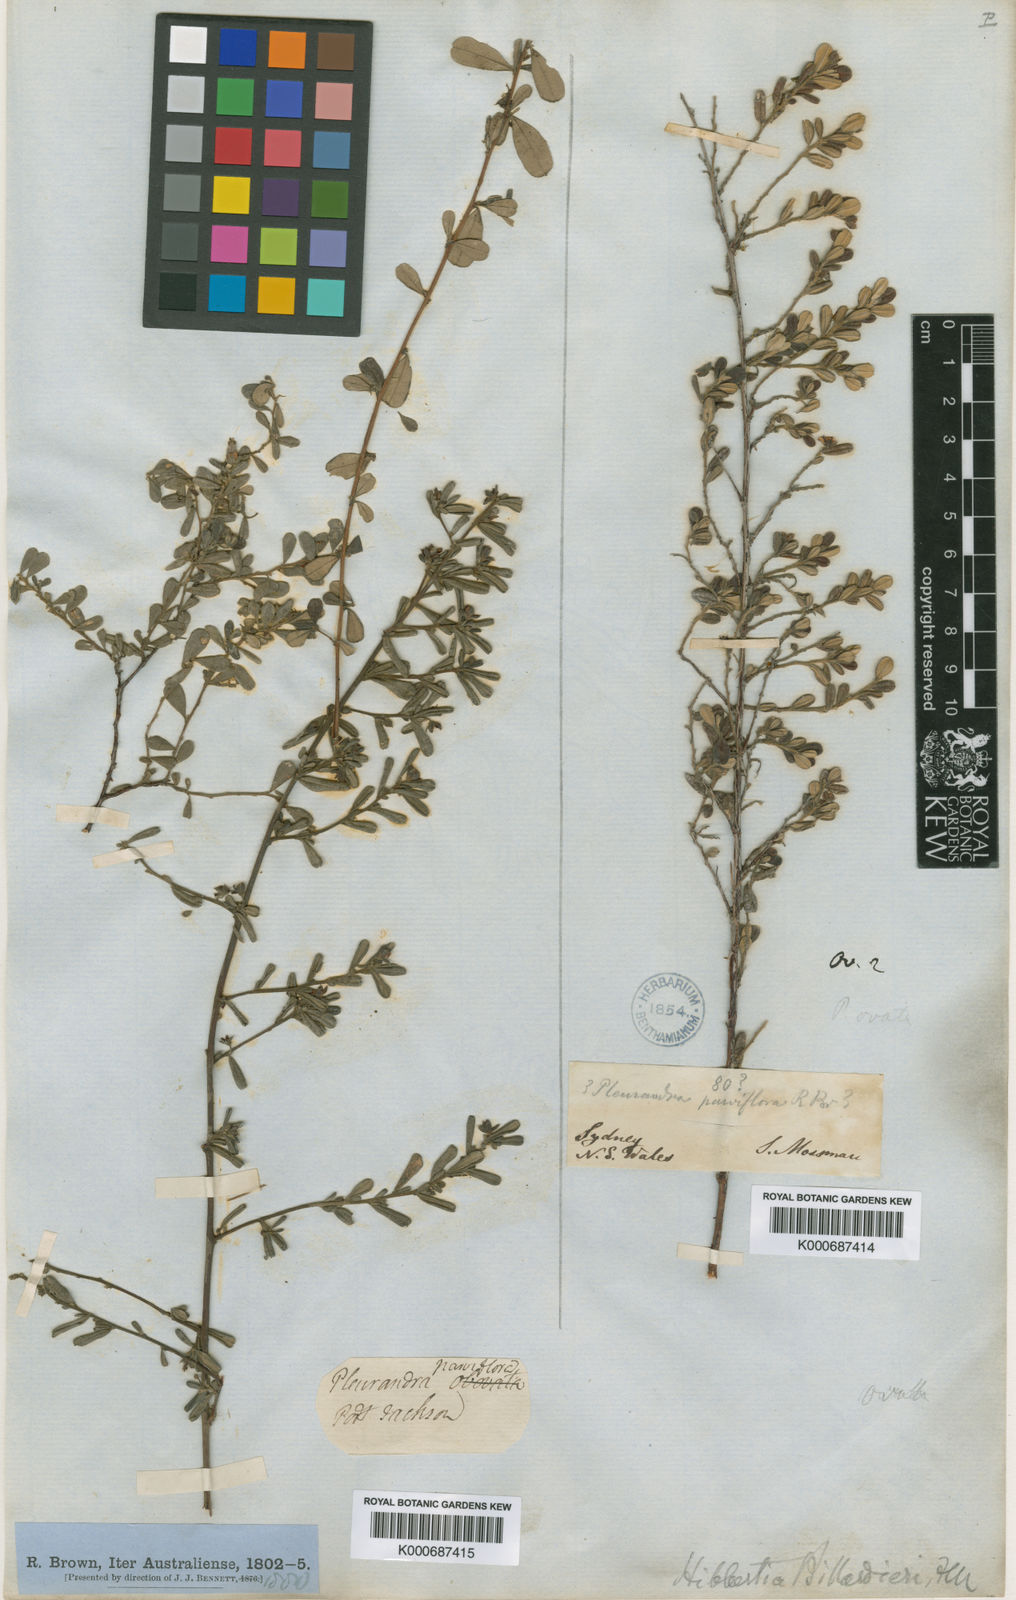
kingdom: Plantae
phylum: Tracheophyta
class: Magnoliopsida
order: Dilleniales
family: Dilleniaceae
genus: Hibbertia
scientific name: Hibbertia aspera
